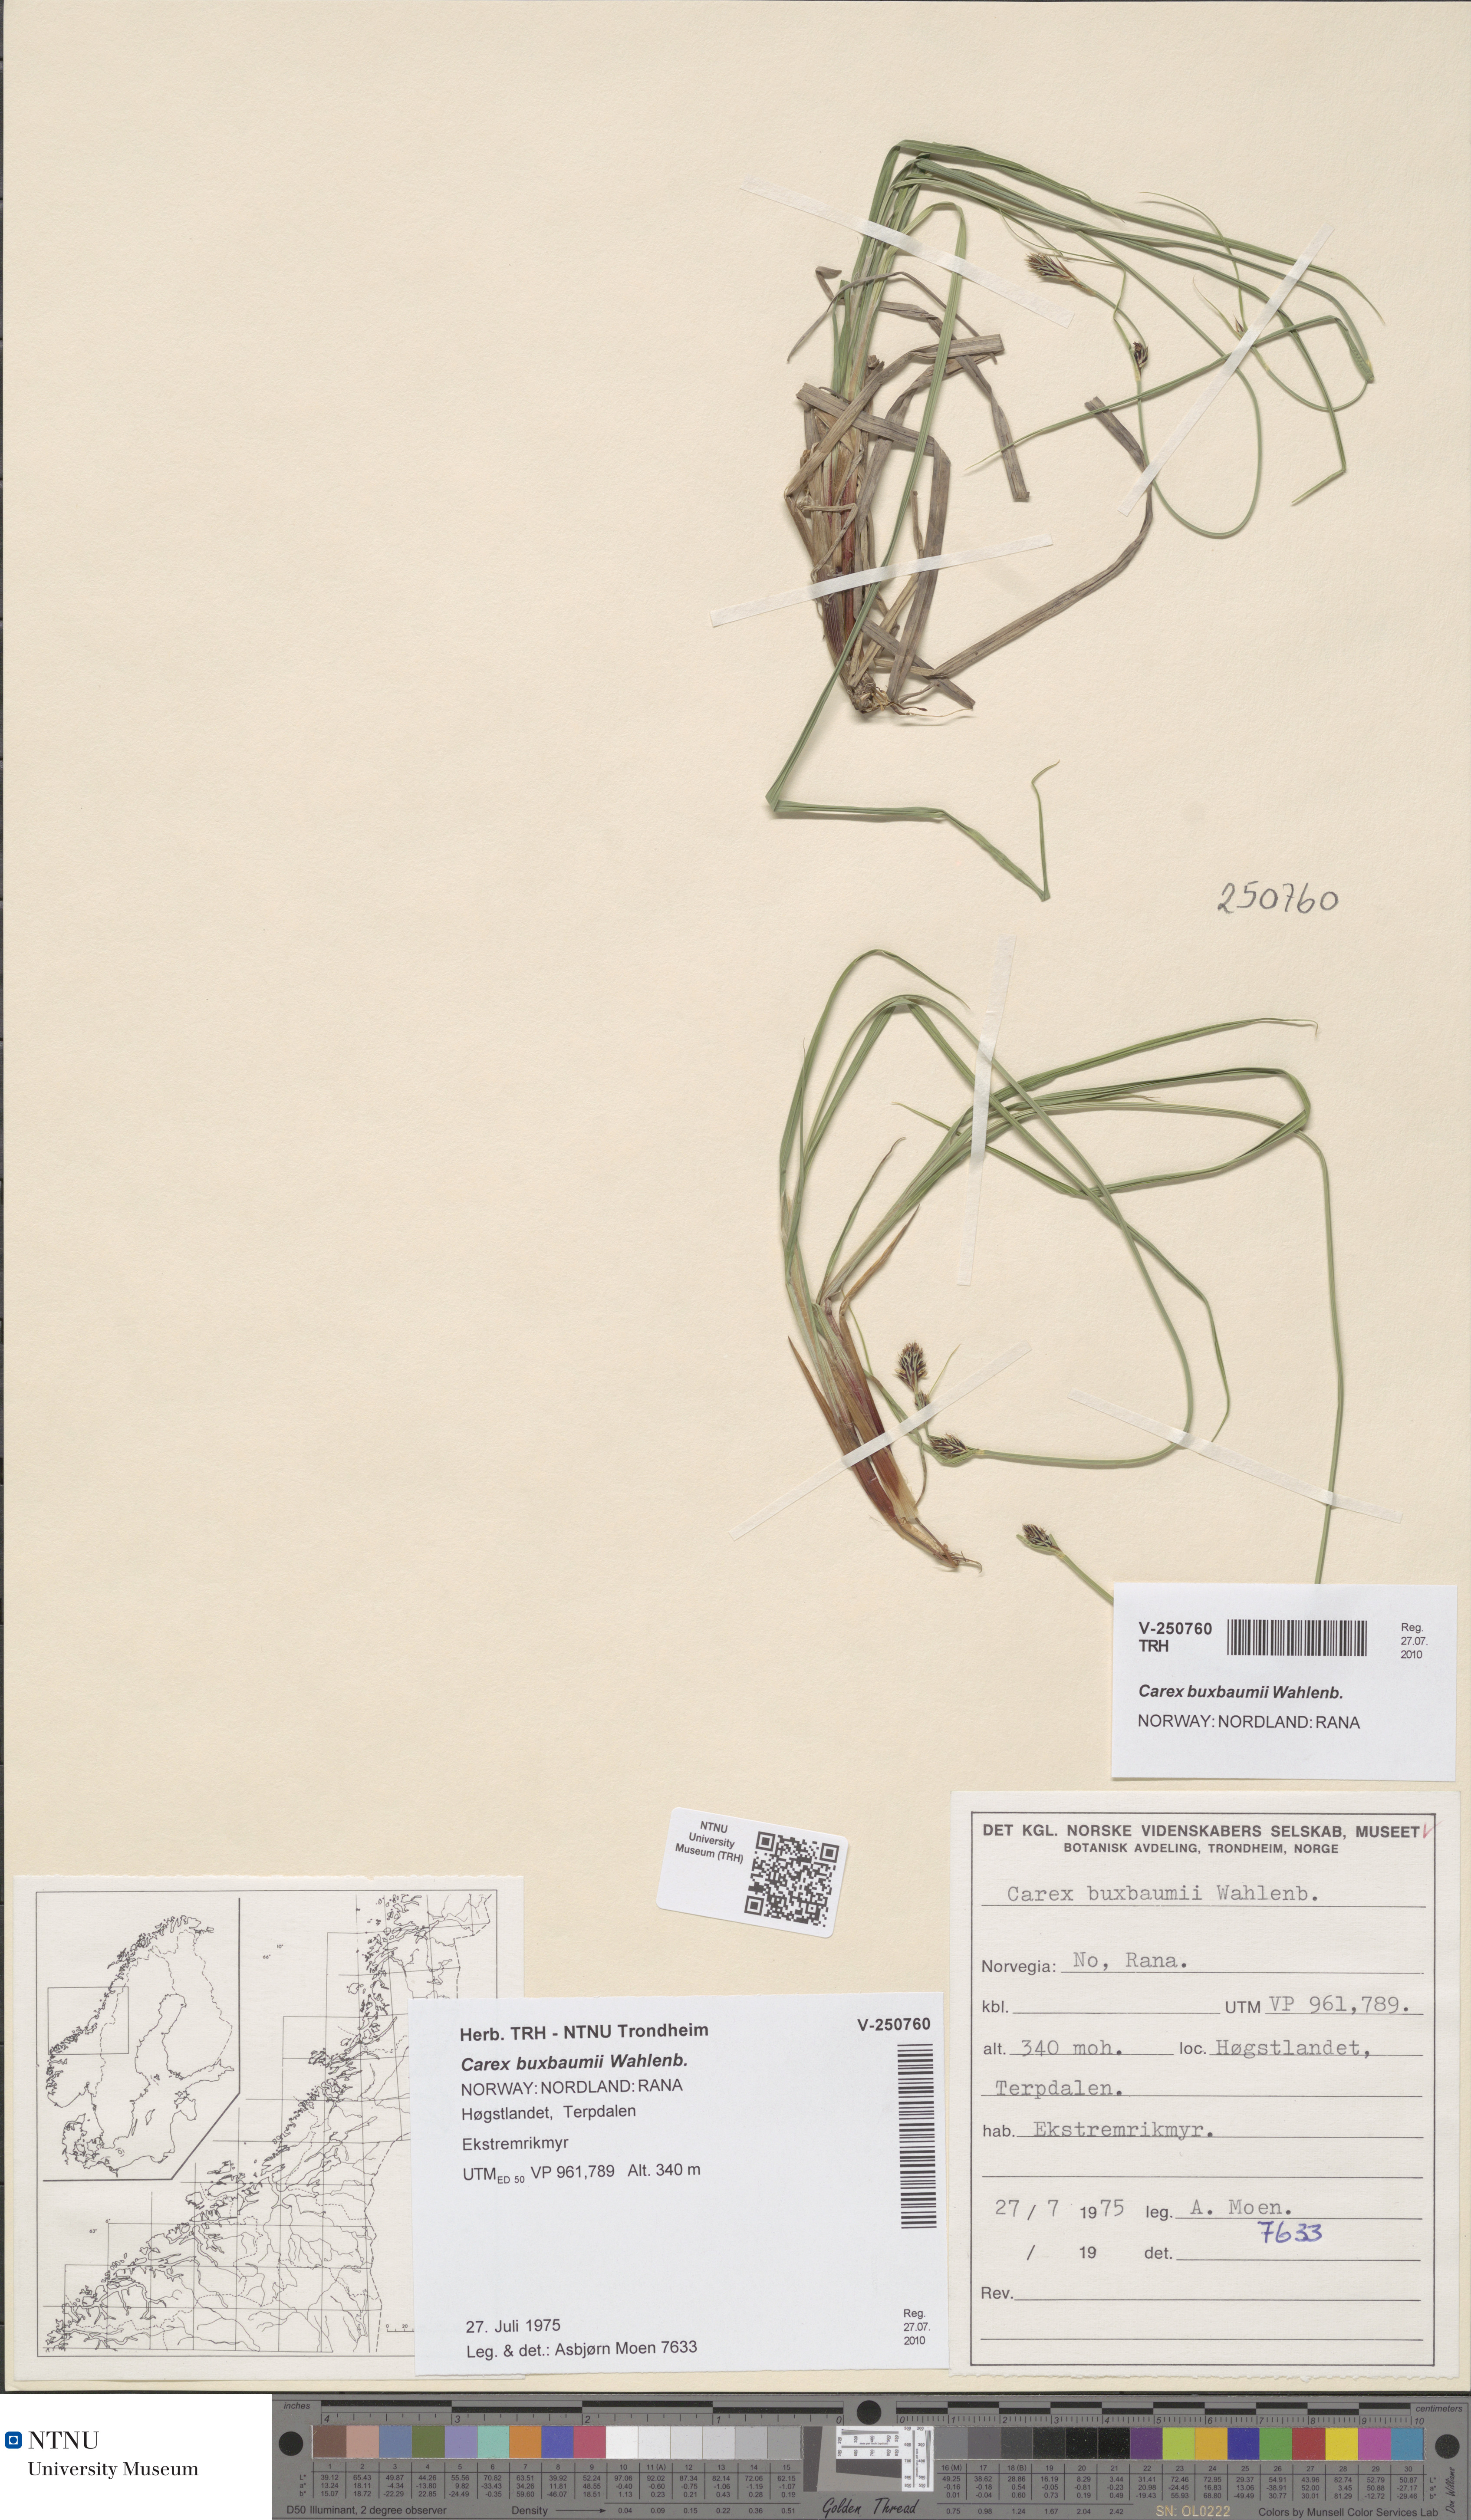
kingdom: Plantae
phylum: Tracheophyta
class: Liliopsida
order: Poales
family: Cyperaceae
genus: Carex
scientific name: Carex buxbaumii
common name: Club sedge
